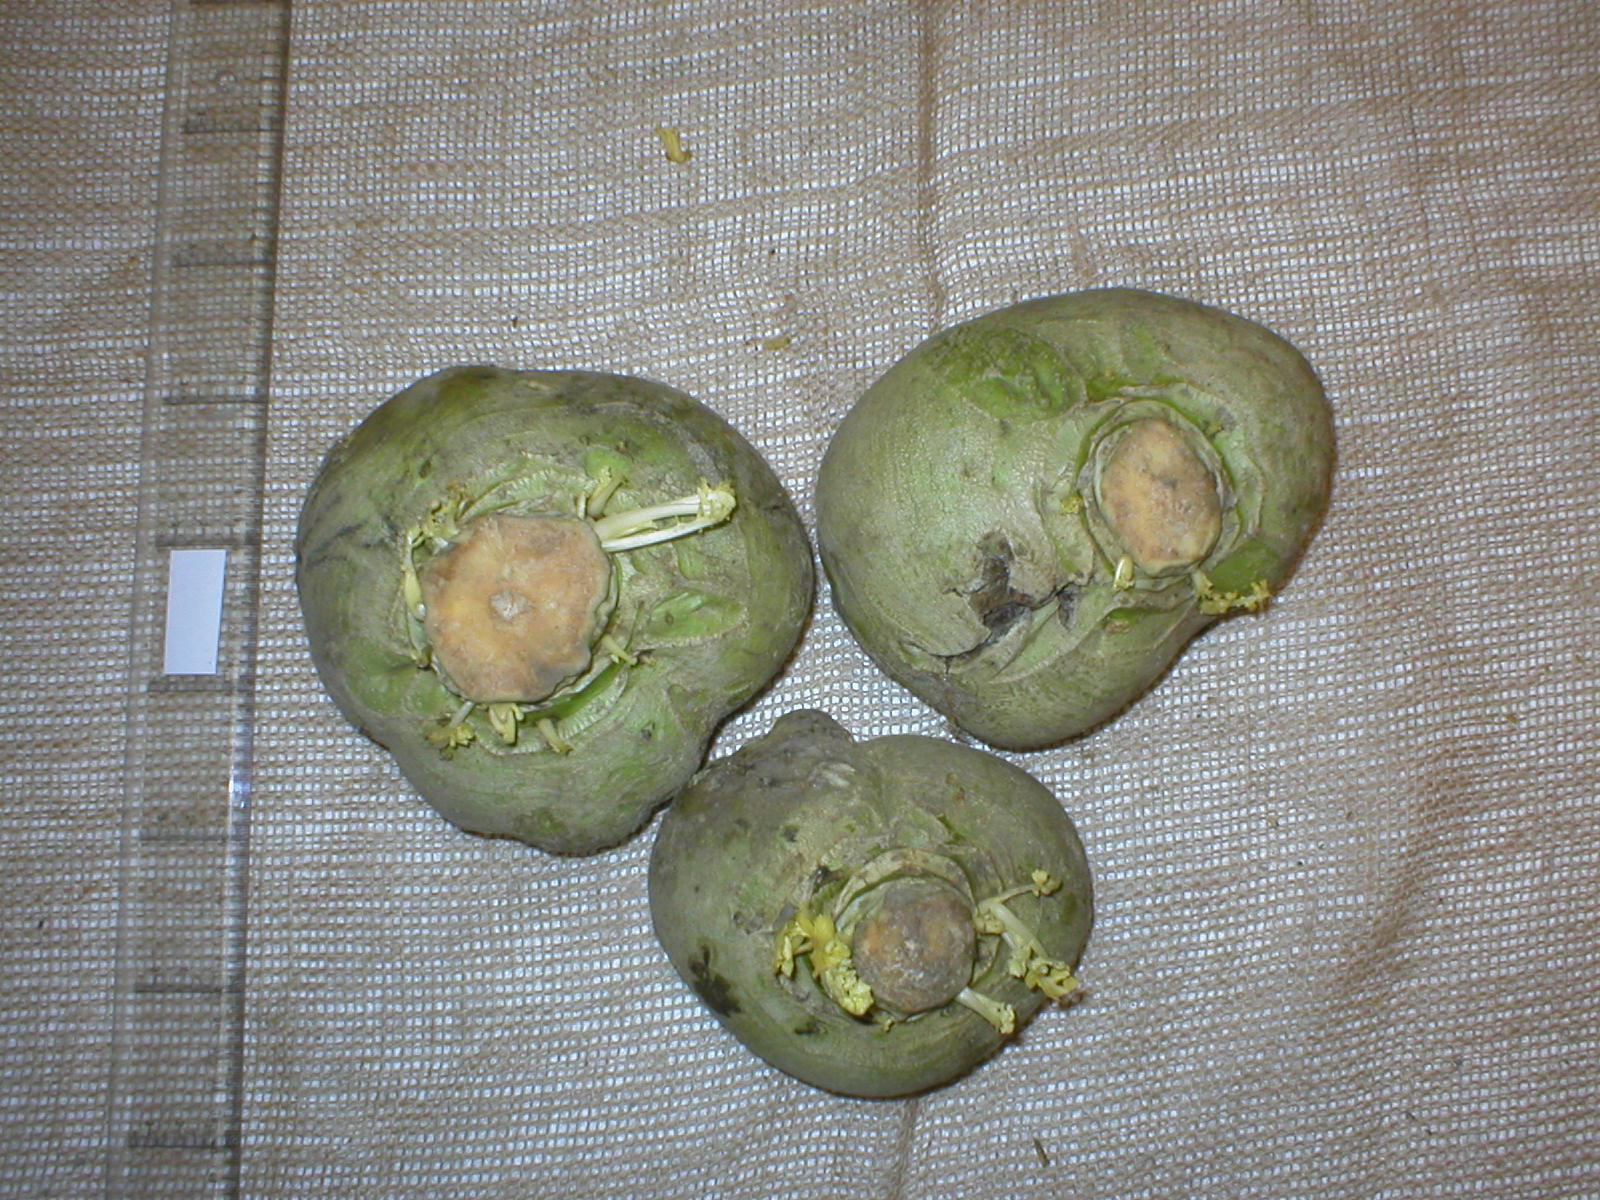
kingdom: Plantae
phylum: Tracheophyta
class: Magnoliopsida
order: Brassicales
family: Brassicaceae
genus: Brassica
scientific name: Brassica napus
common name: Rape
